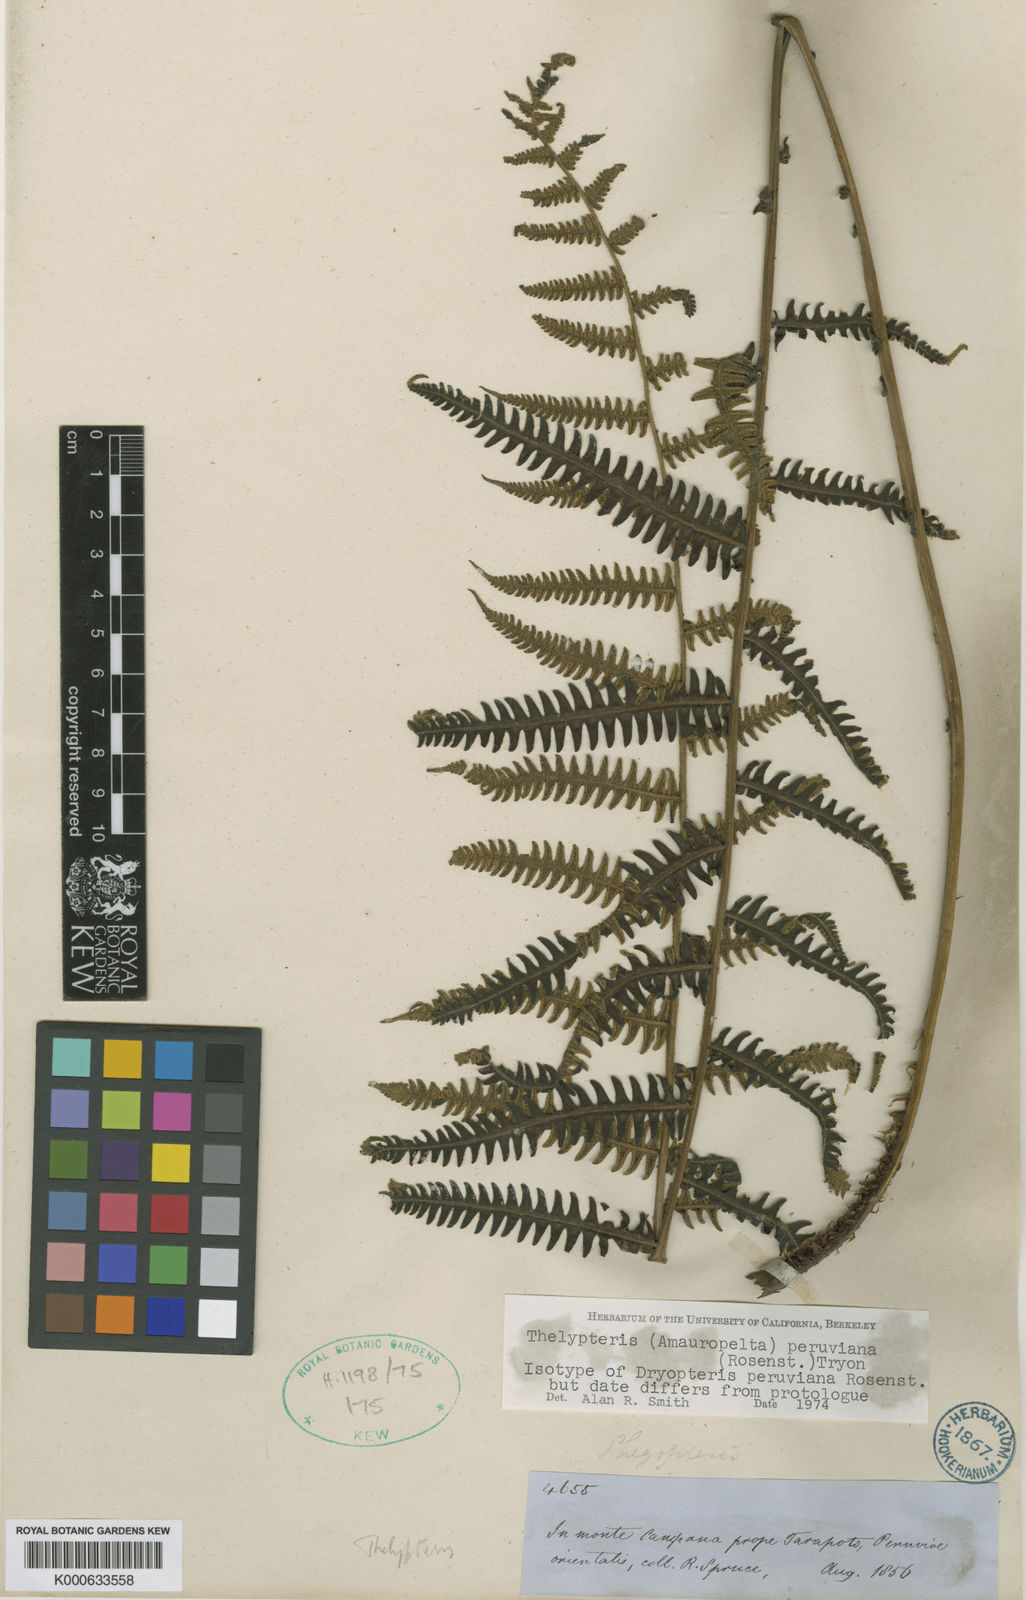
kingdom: Plantae
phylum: Tracheophyta
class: Polypodiopsida
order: Polypodiales
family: Thelypteridaceae
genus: Amauropelta
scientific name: Amauropelta peruviana
